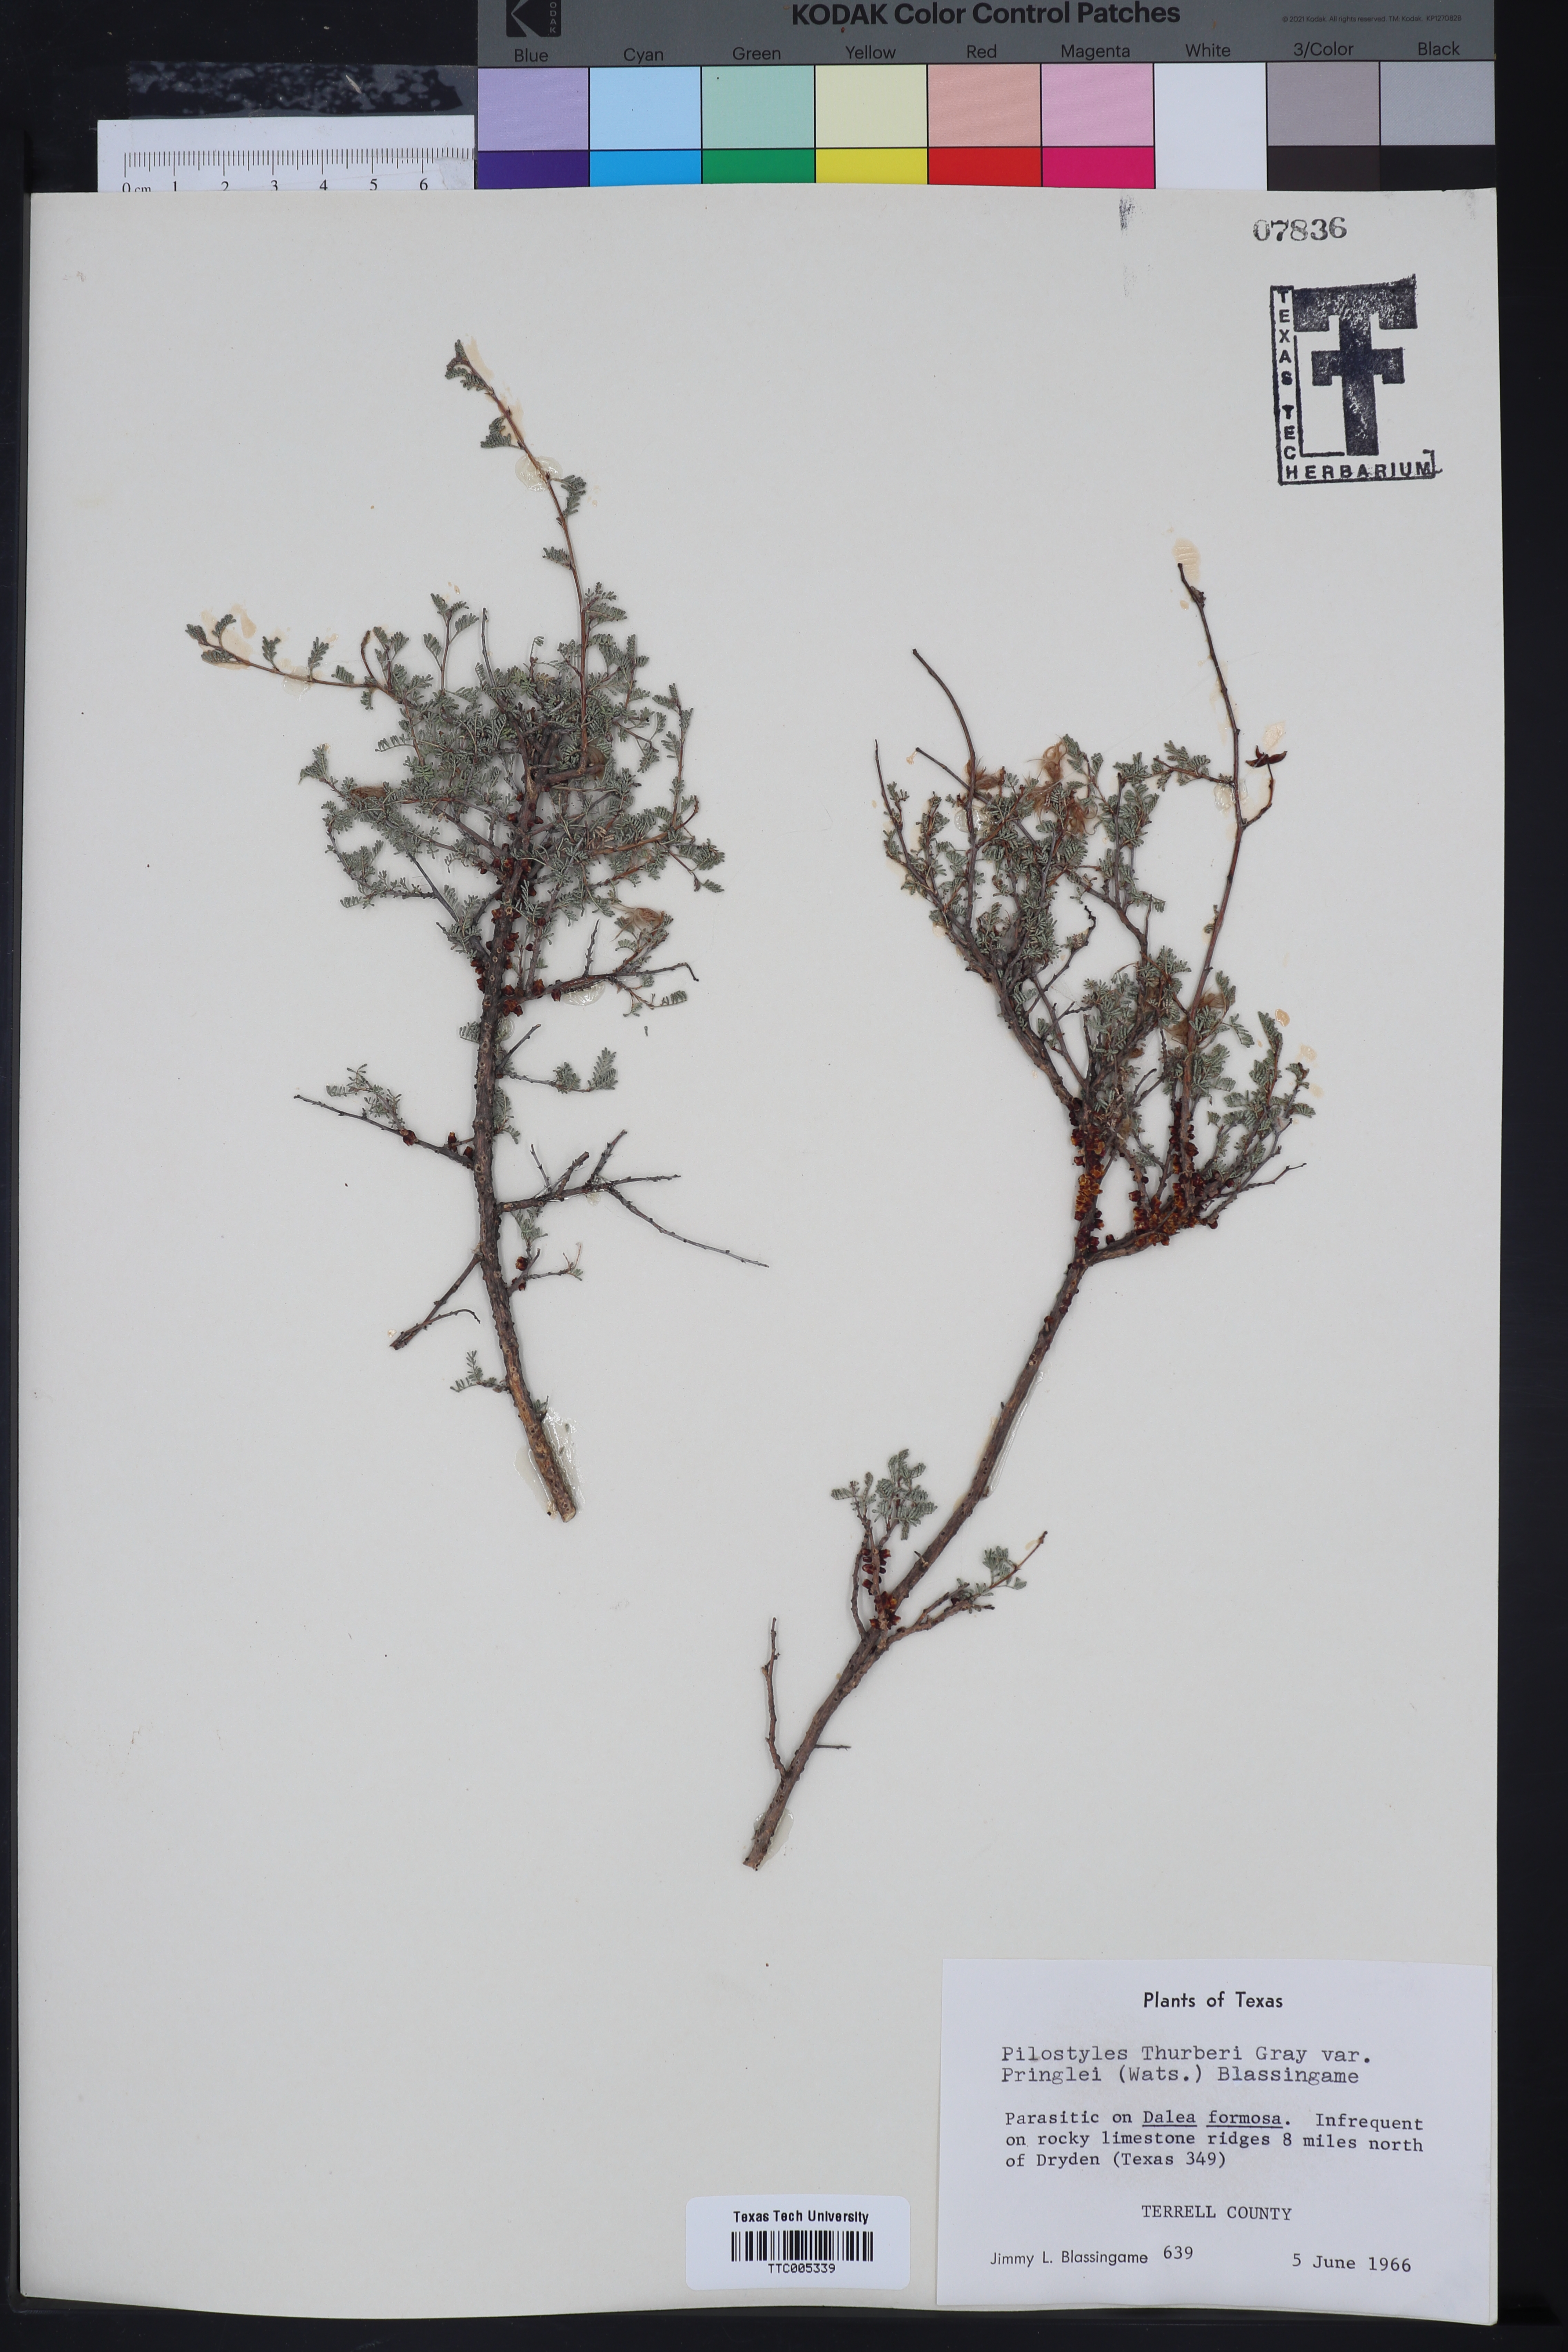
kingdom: Plantae
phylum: Tracheophyta
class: Magnoliopsida
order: Cucurbitales
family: Apodanthaceae
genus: Pilostyles
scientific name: Pilostyles thurberi
